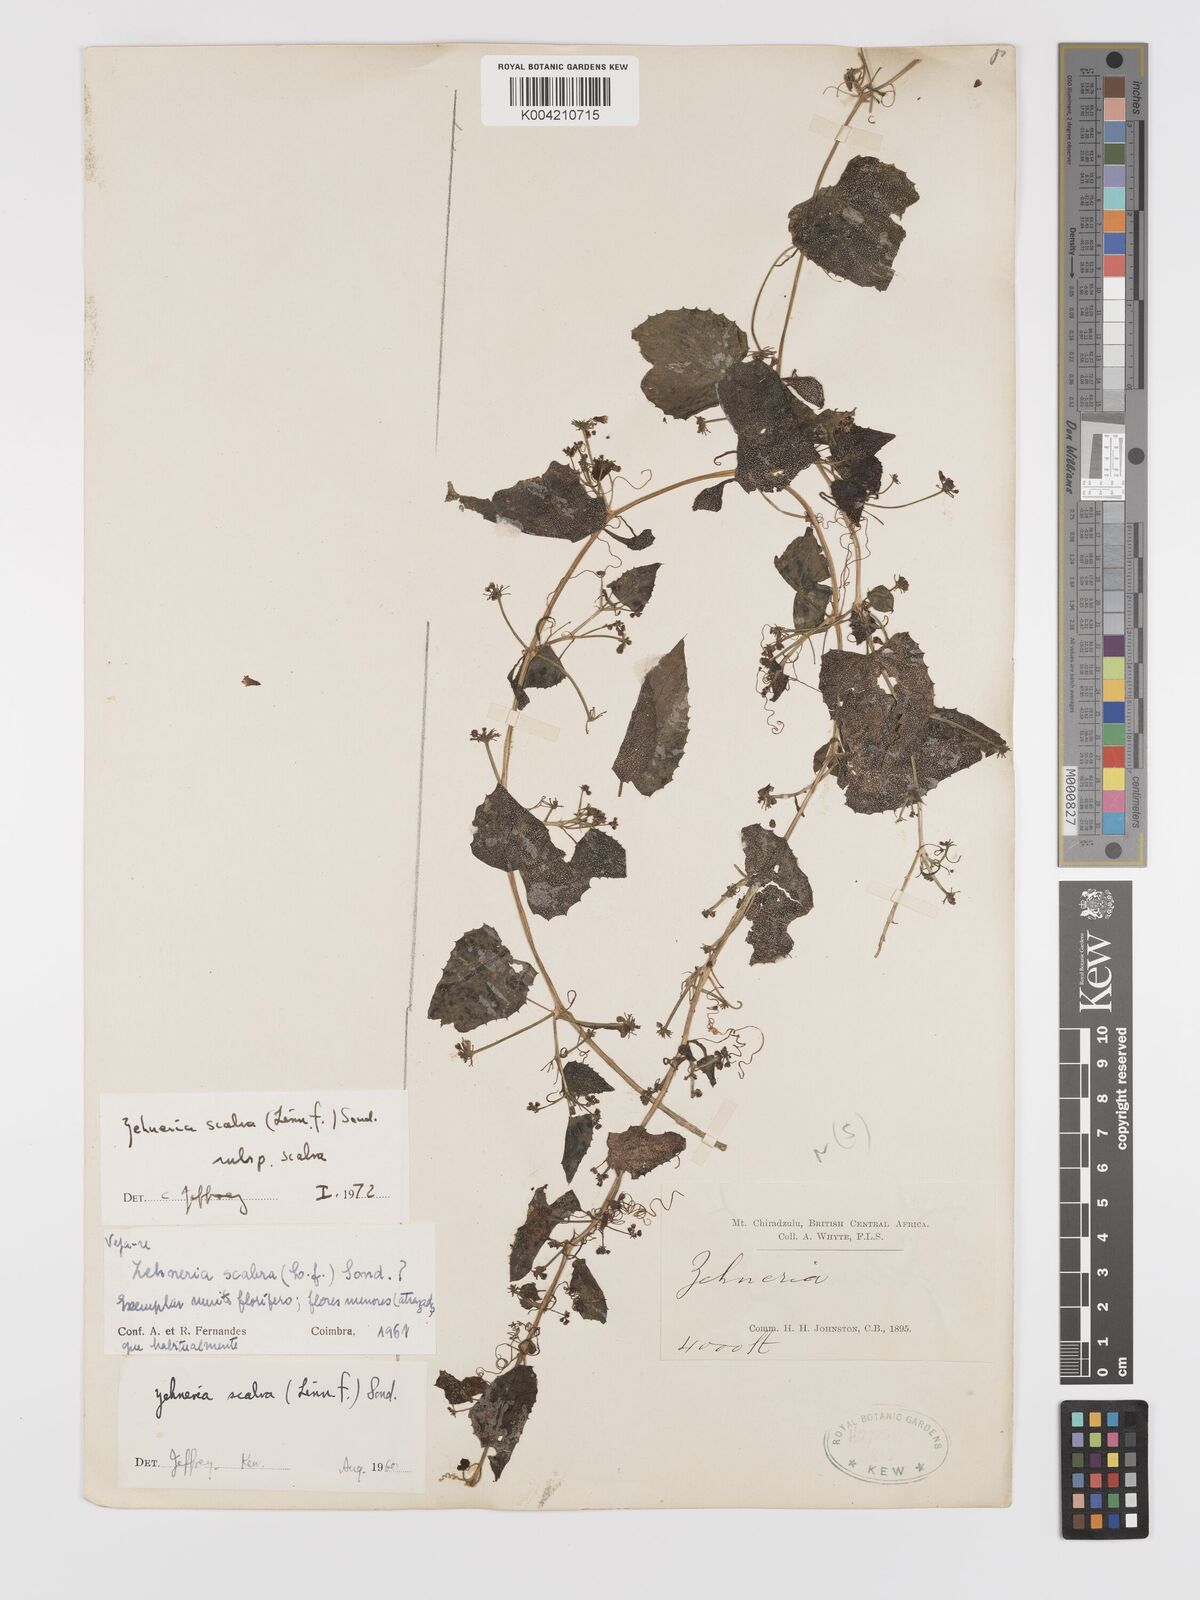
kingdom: Plantae
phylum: Tracheophyta
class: Magnoliopsida
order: Cucurbitales
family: Cucurbitaceae
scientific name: Cucurbitaceae
